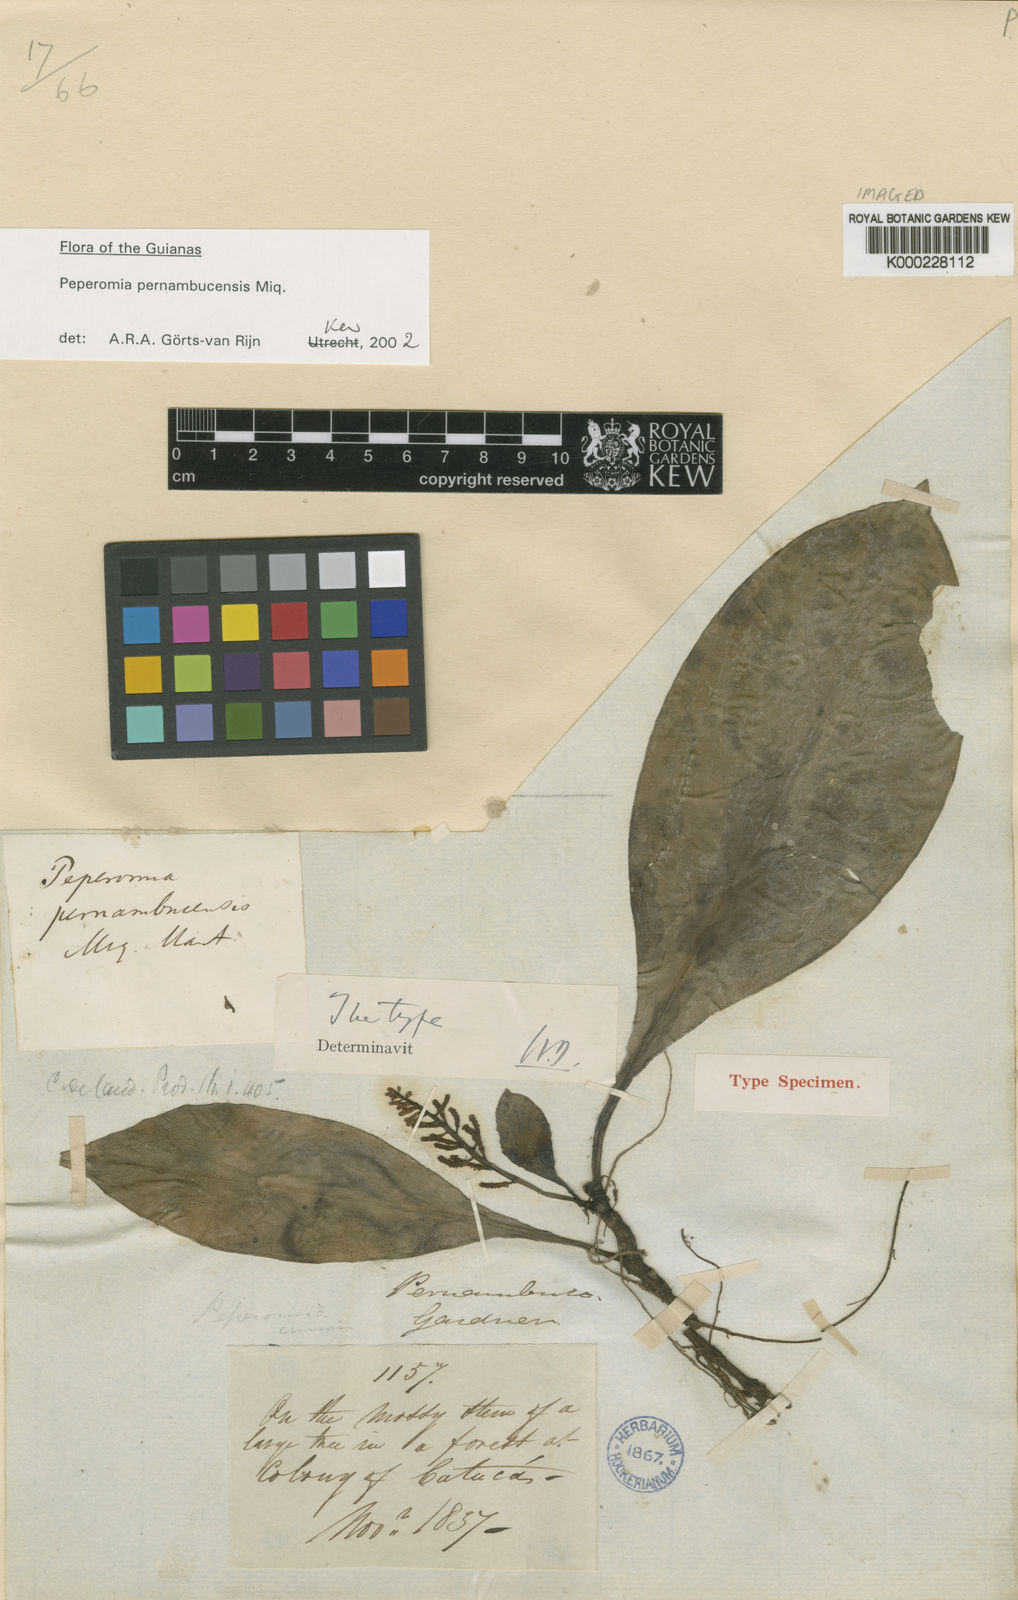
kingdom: Plantae
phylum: Tracheophyta
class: Magnoliopsida
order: Piperales
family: Piperaceae
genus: Peperomia
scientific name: Peperomia pernambucensis
